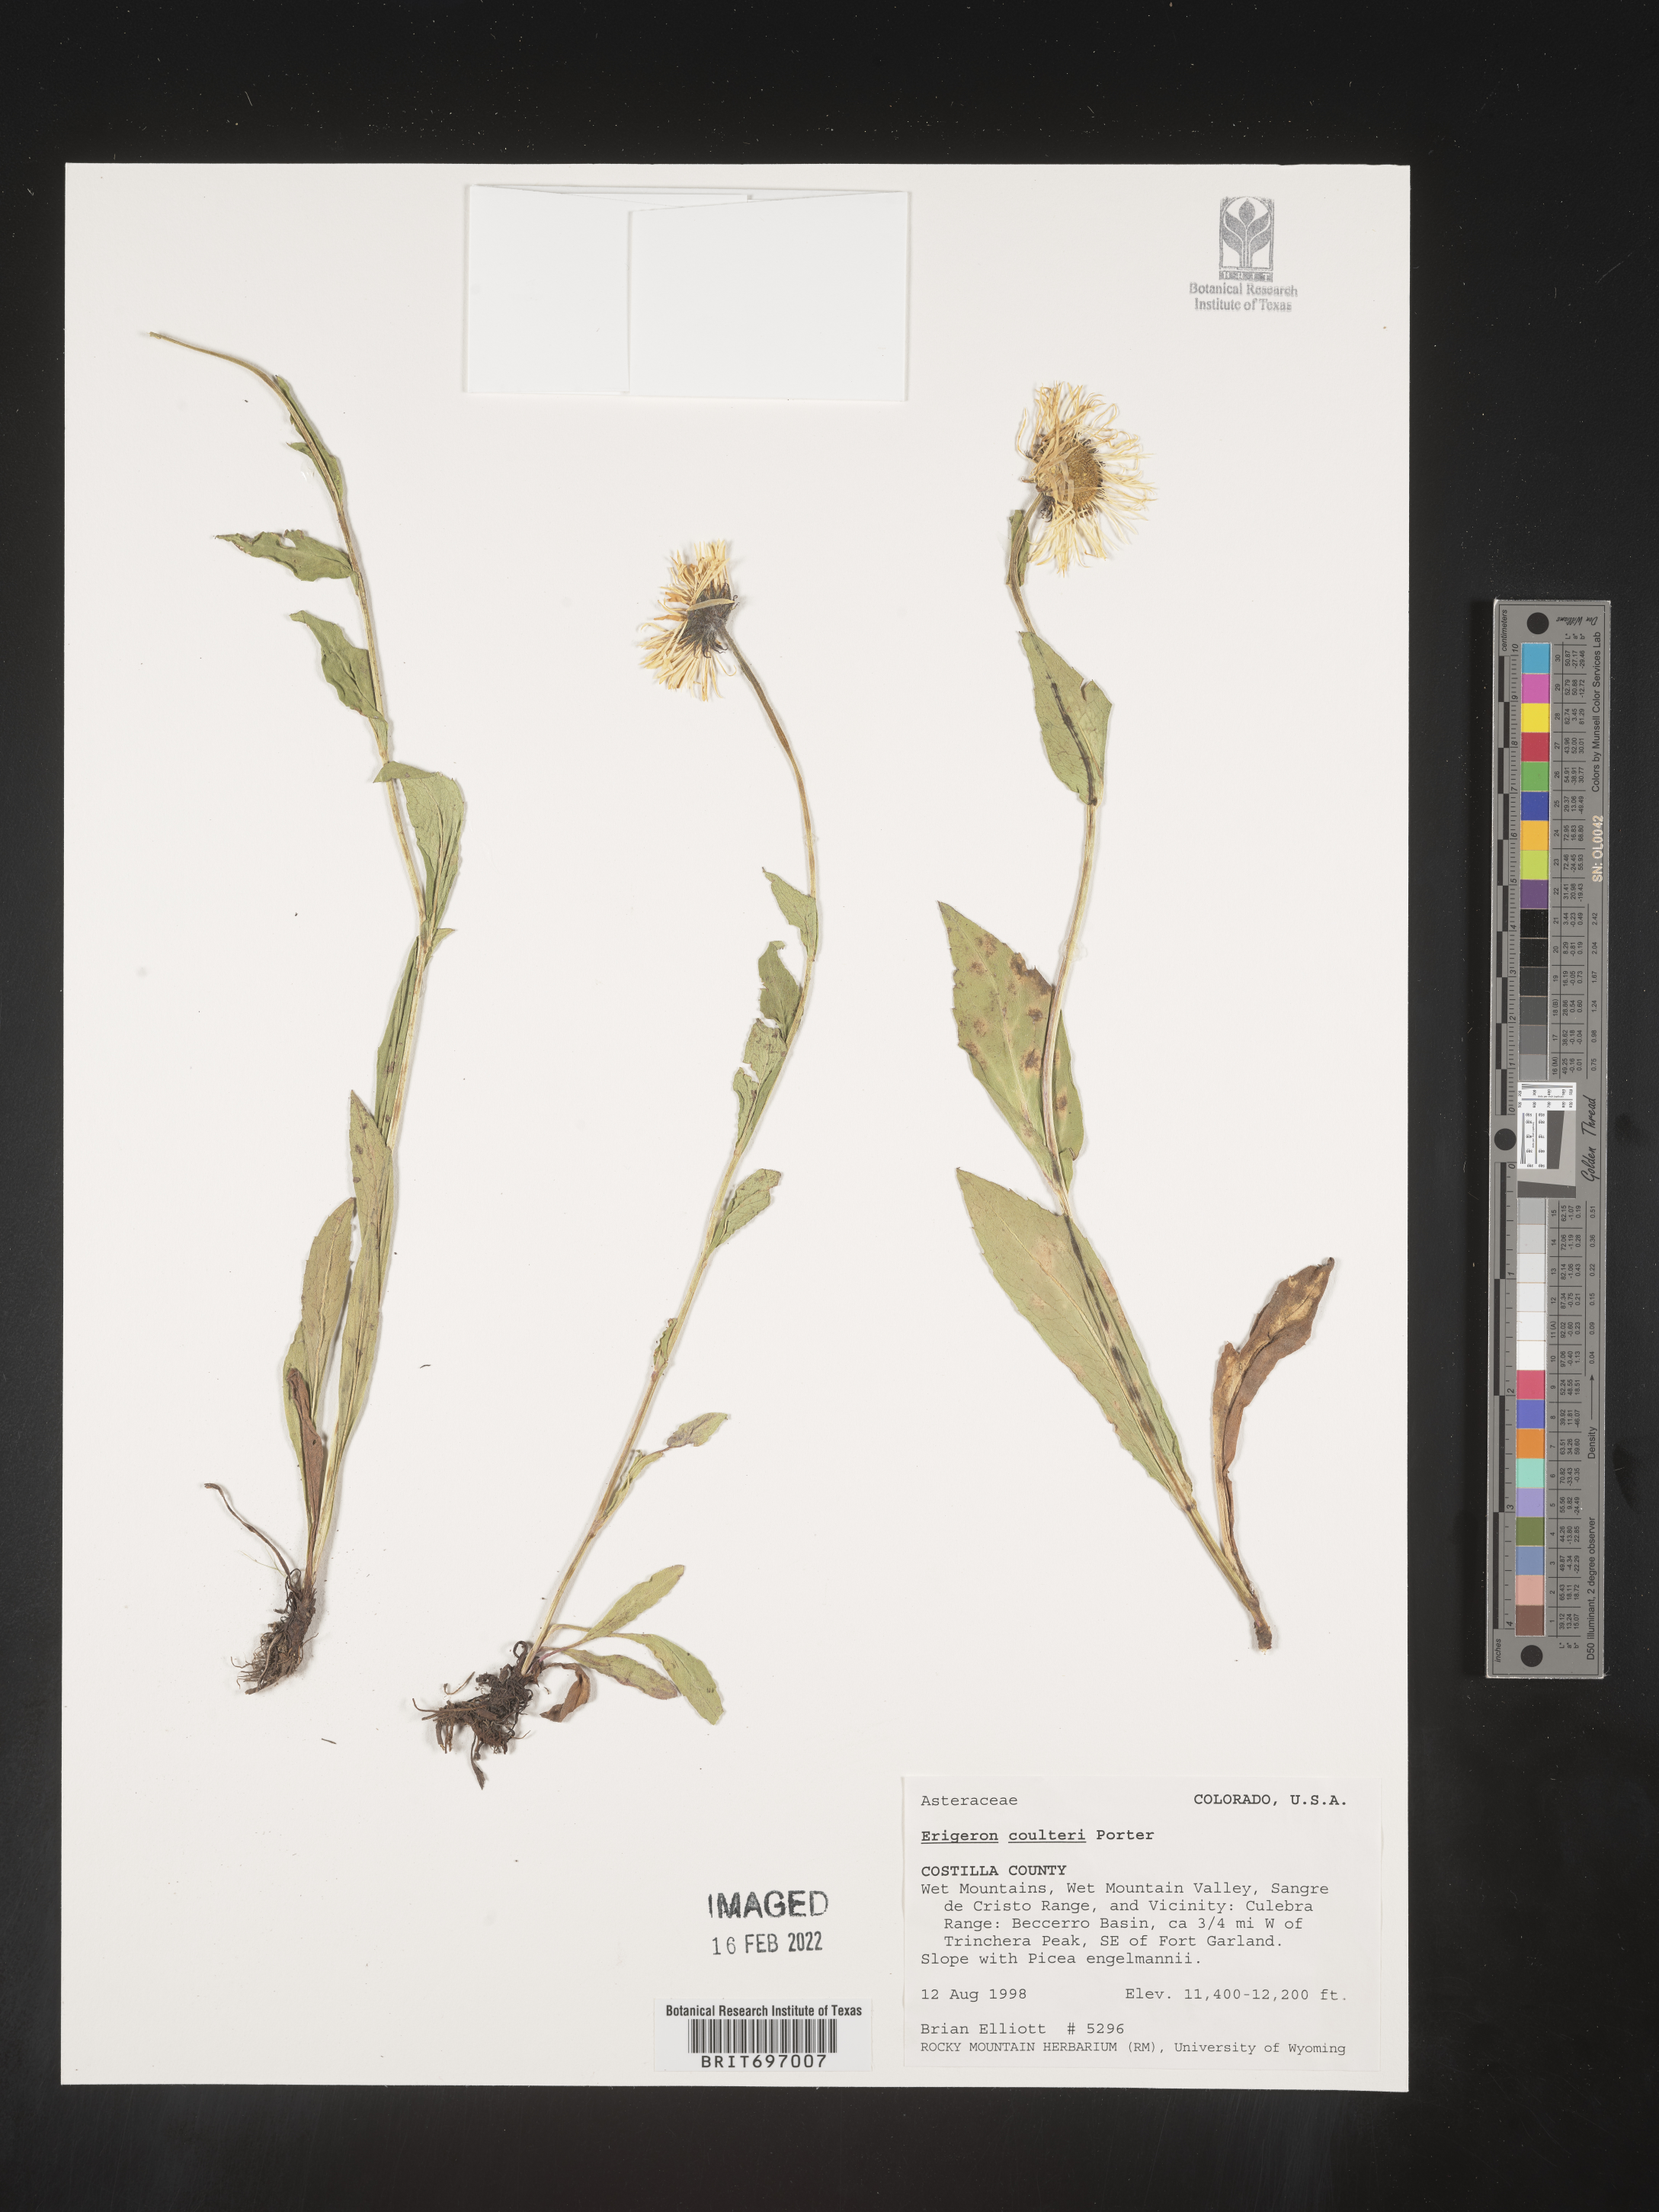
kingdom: Plantae
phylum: Tracheophyta
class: Magnoliopsida
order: Asterales
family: Asteraceae
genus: Erigeron
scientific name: Erigeron coulteri
